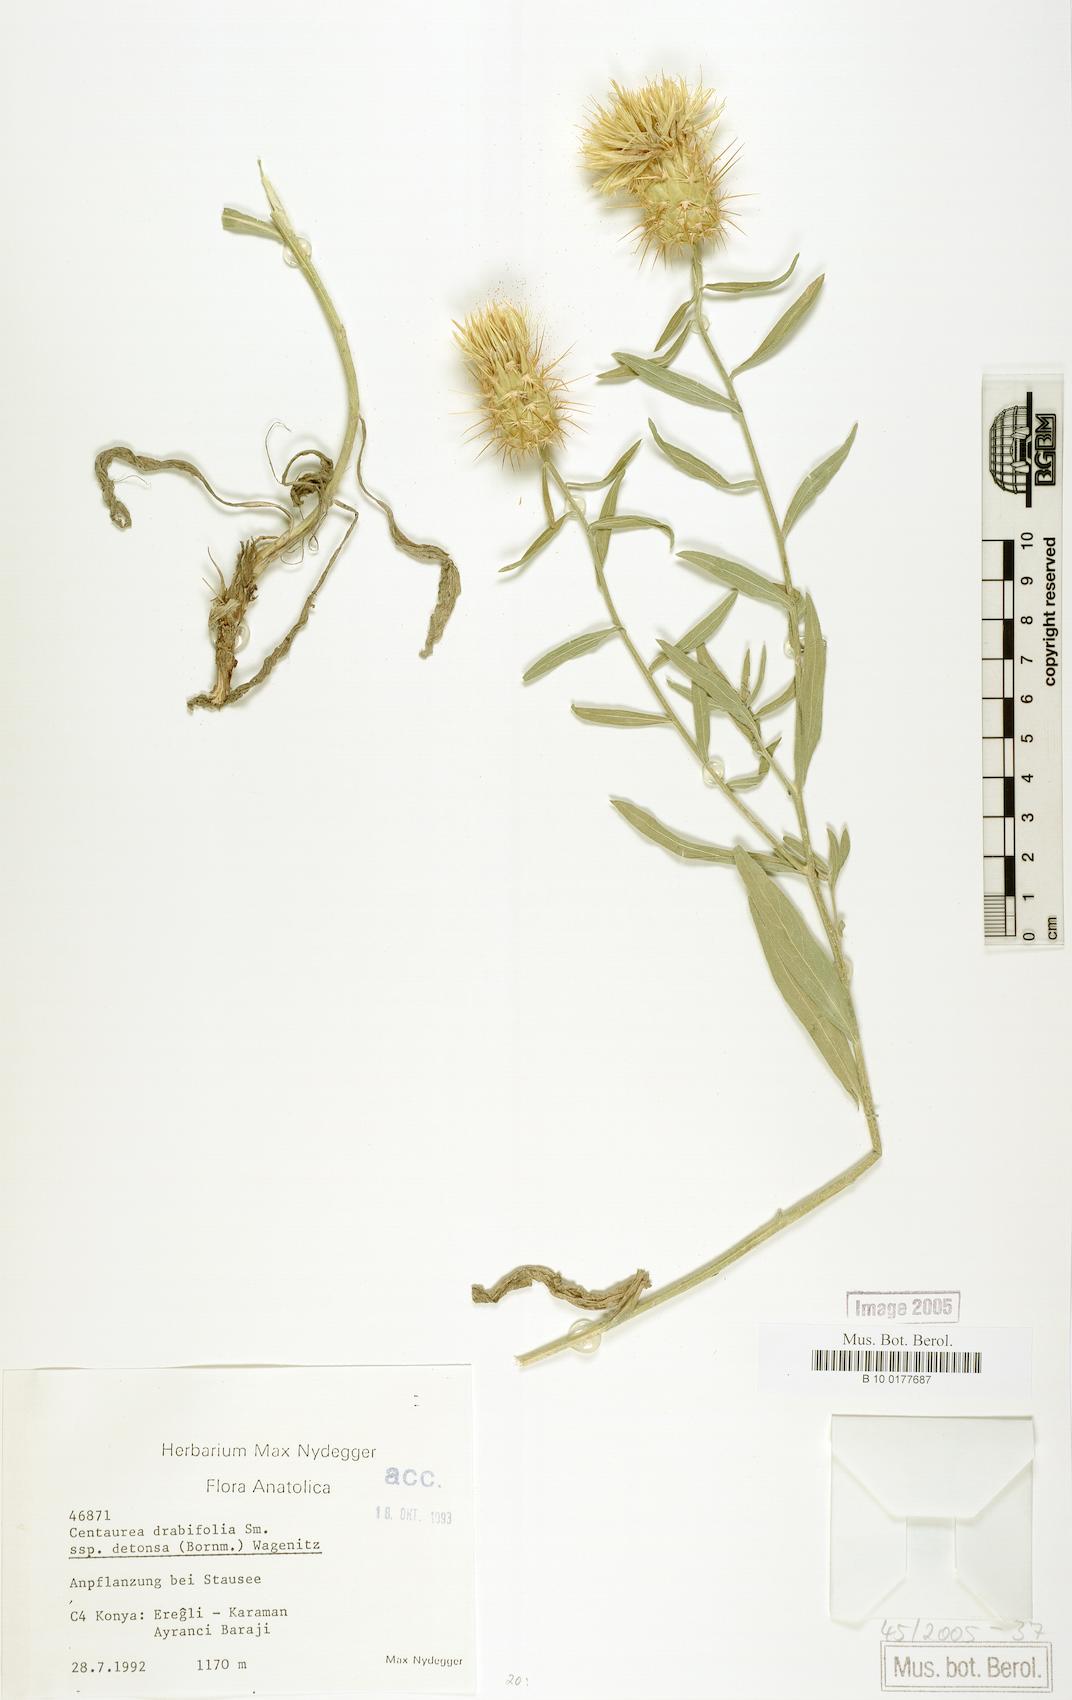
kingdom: Plantae
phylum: Tracheophyta
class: Magnoliopsida
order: Asterales
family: Asteraceae
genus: Centaurea
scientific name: Centaurea kotschyi
